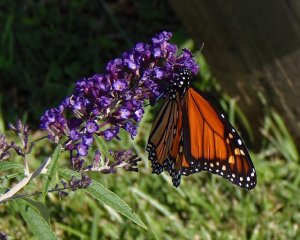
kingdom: Animalia
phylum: Arthropoda
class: Insecta
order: Lepidoptera
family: Nymphalidae
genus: Danaus
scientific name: Danaus plexippus
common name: Monarch
